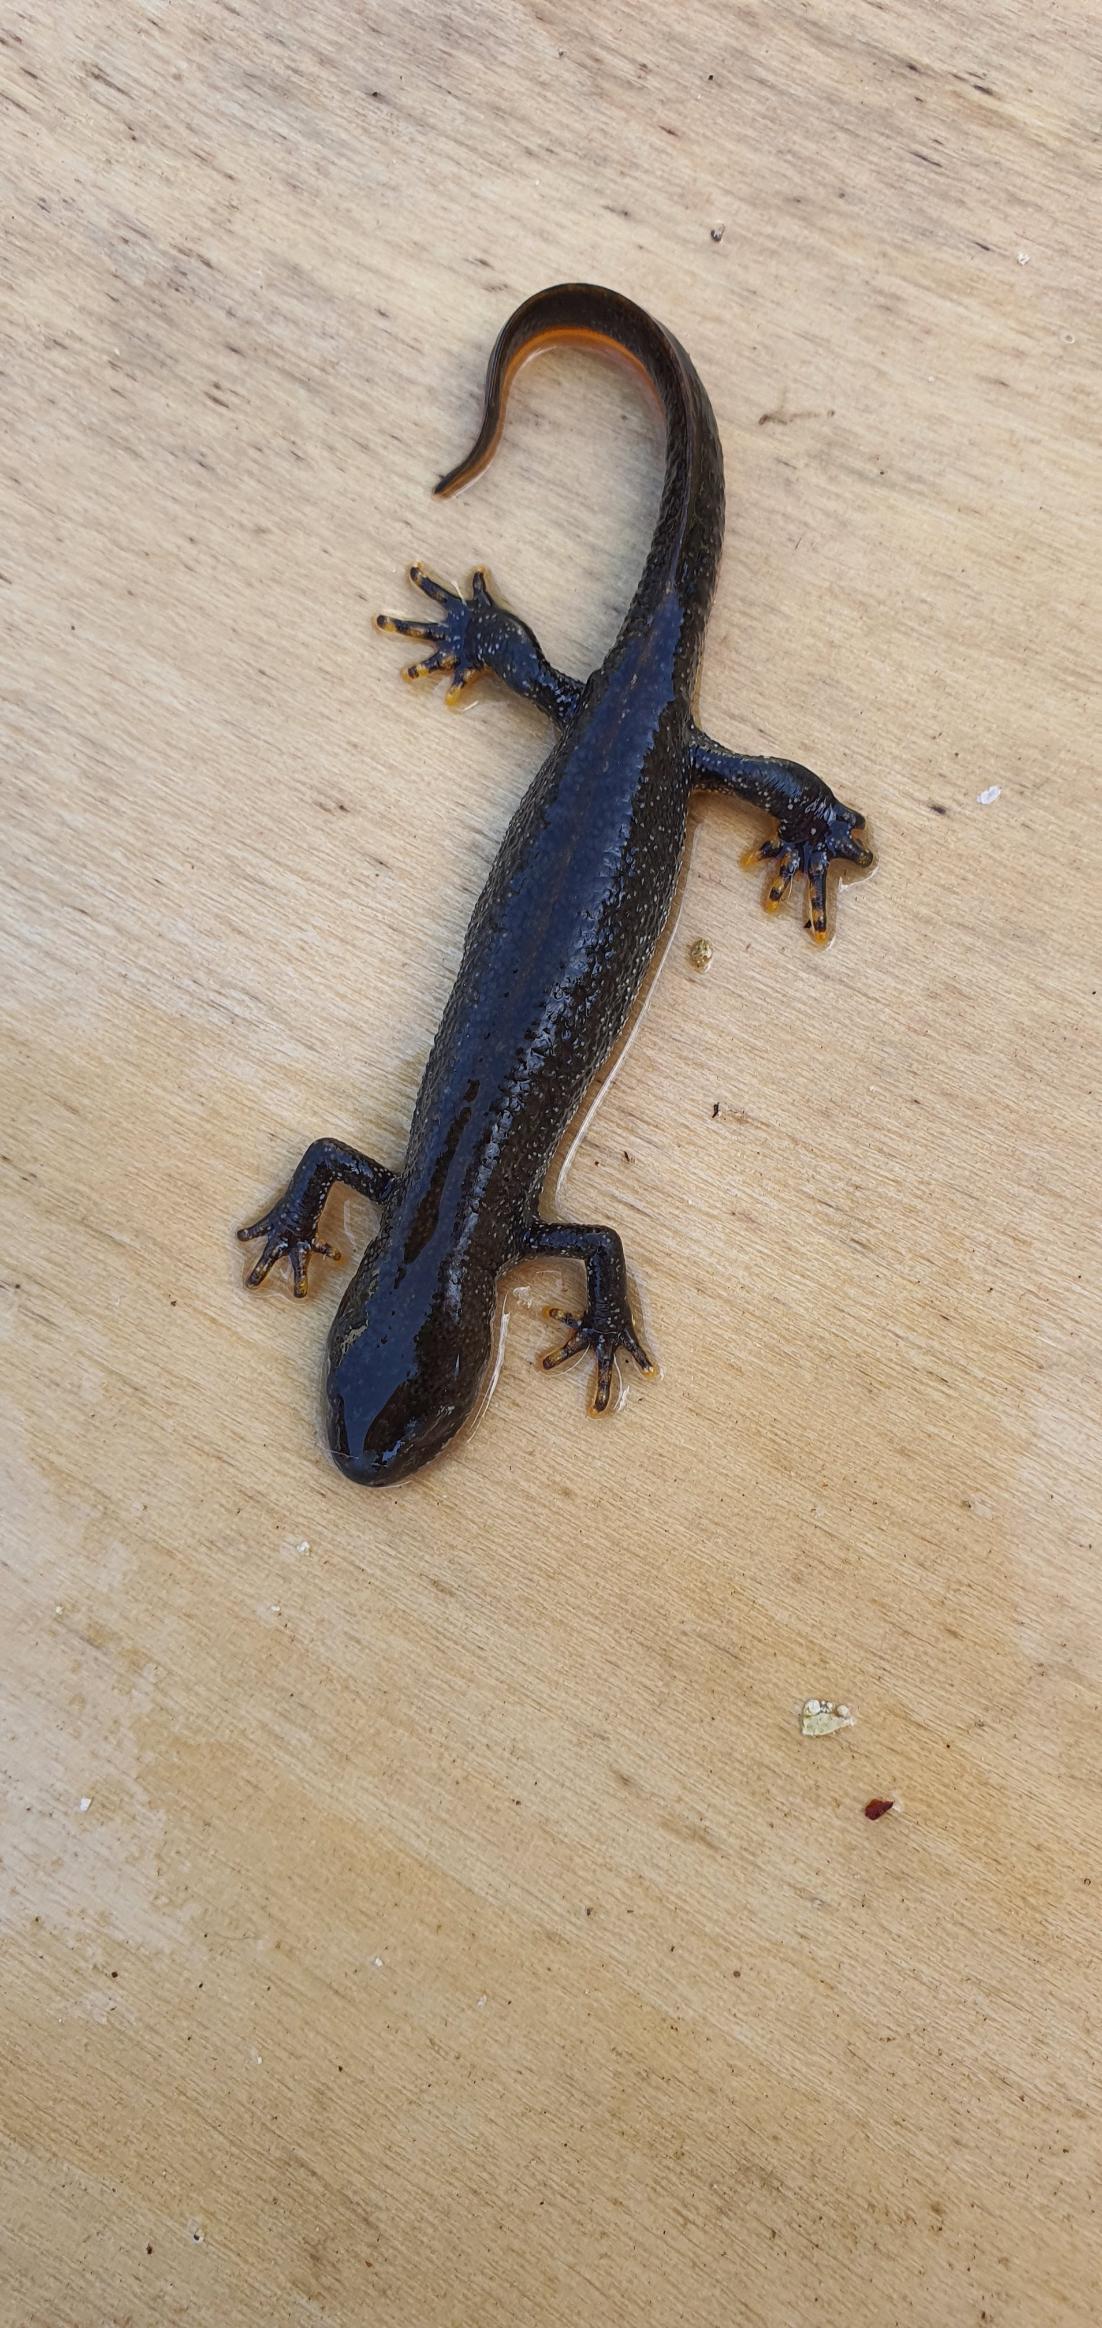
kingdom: Animalia
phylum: Chordata
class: Amphibia
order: Caudata
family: Salamandridae
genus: Triturus
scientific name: Triturus cristatus
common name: Stor vandsalamander
